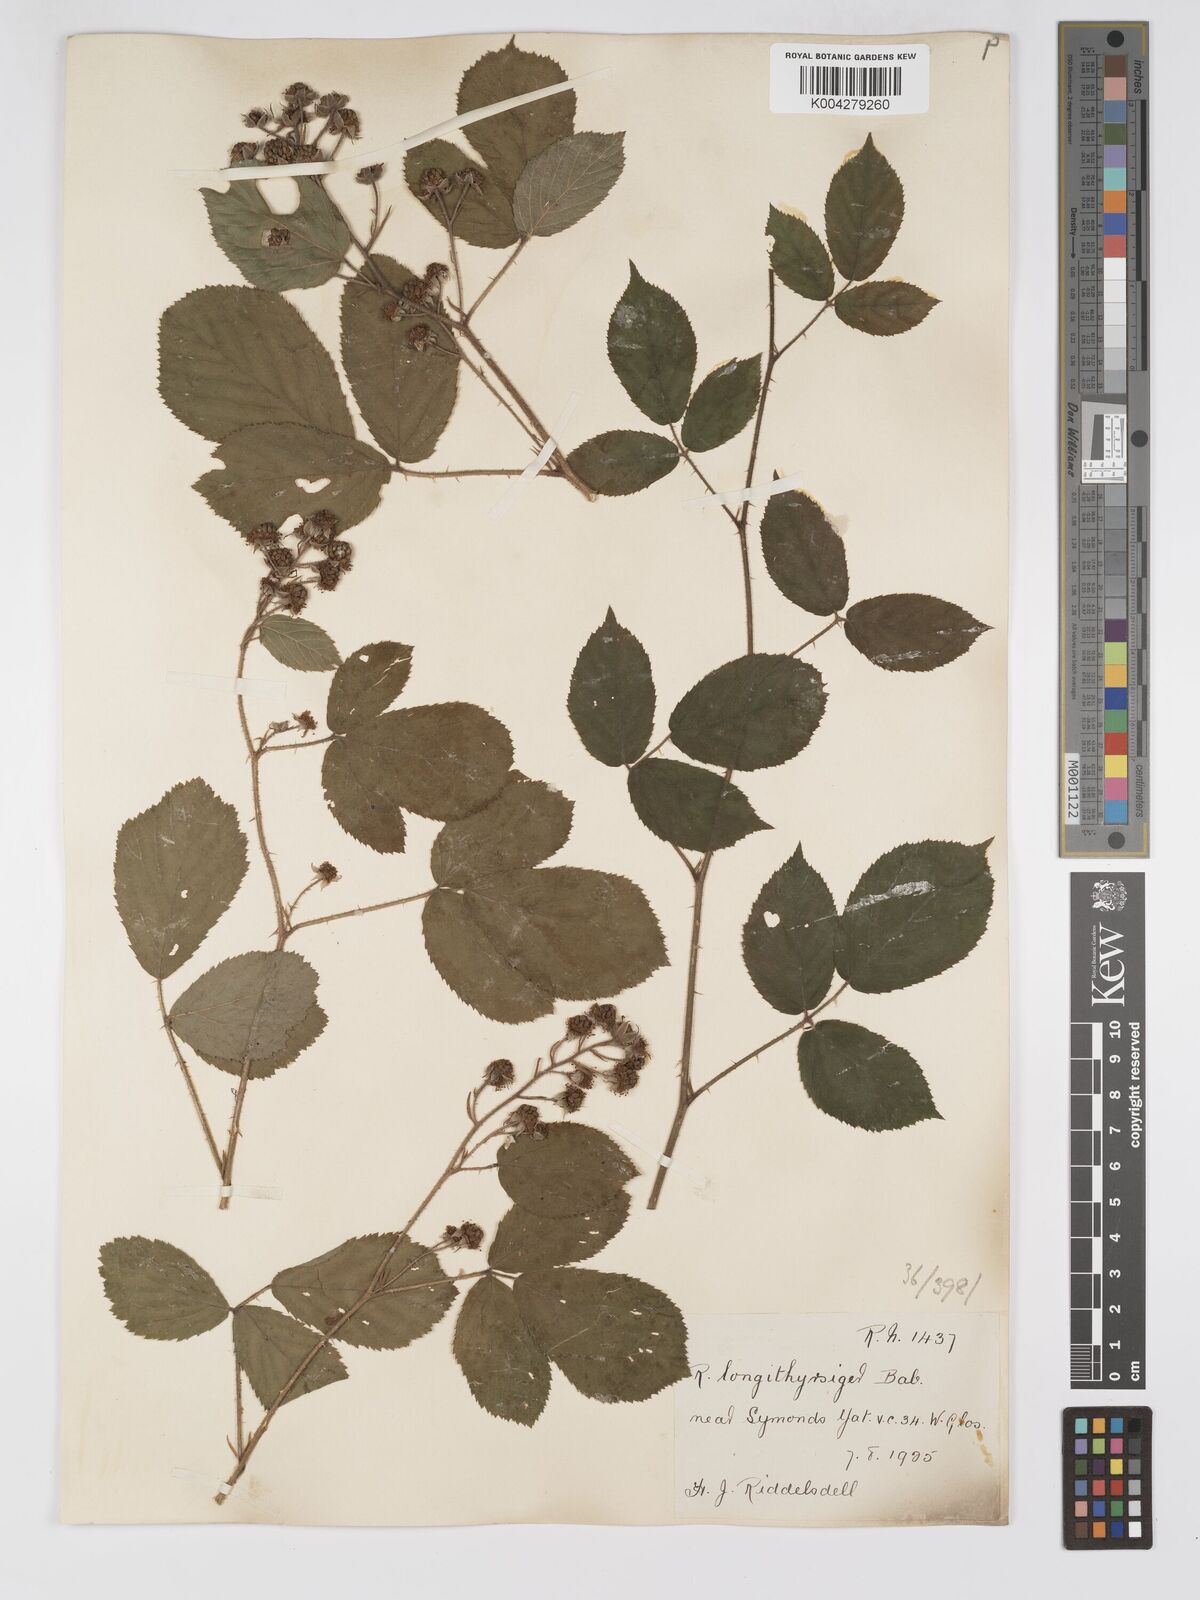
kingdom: Plantae
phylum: Tracheophyta
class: Magnoliopsida
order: Rosales
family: Rosaceae
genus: Rubus
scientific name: Rubus longithyrsiger
